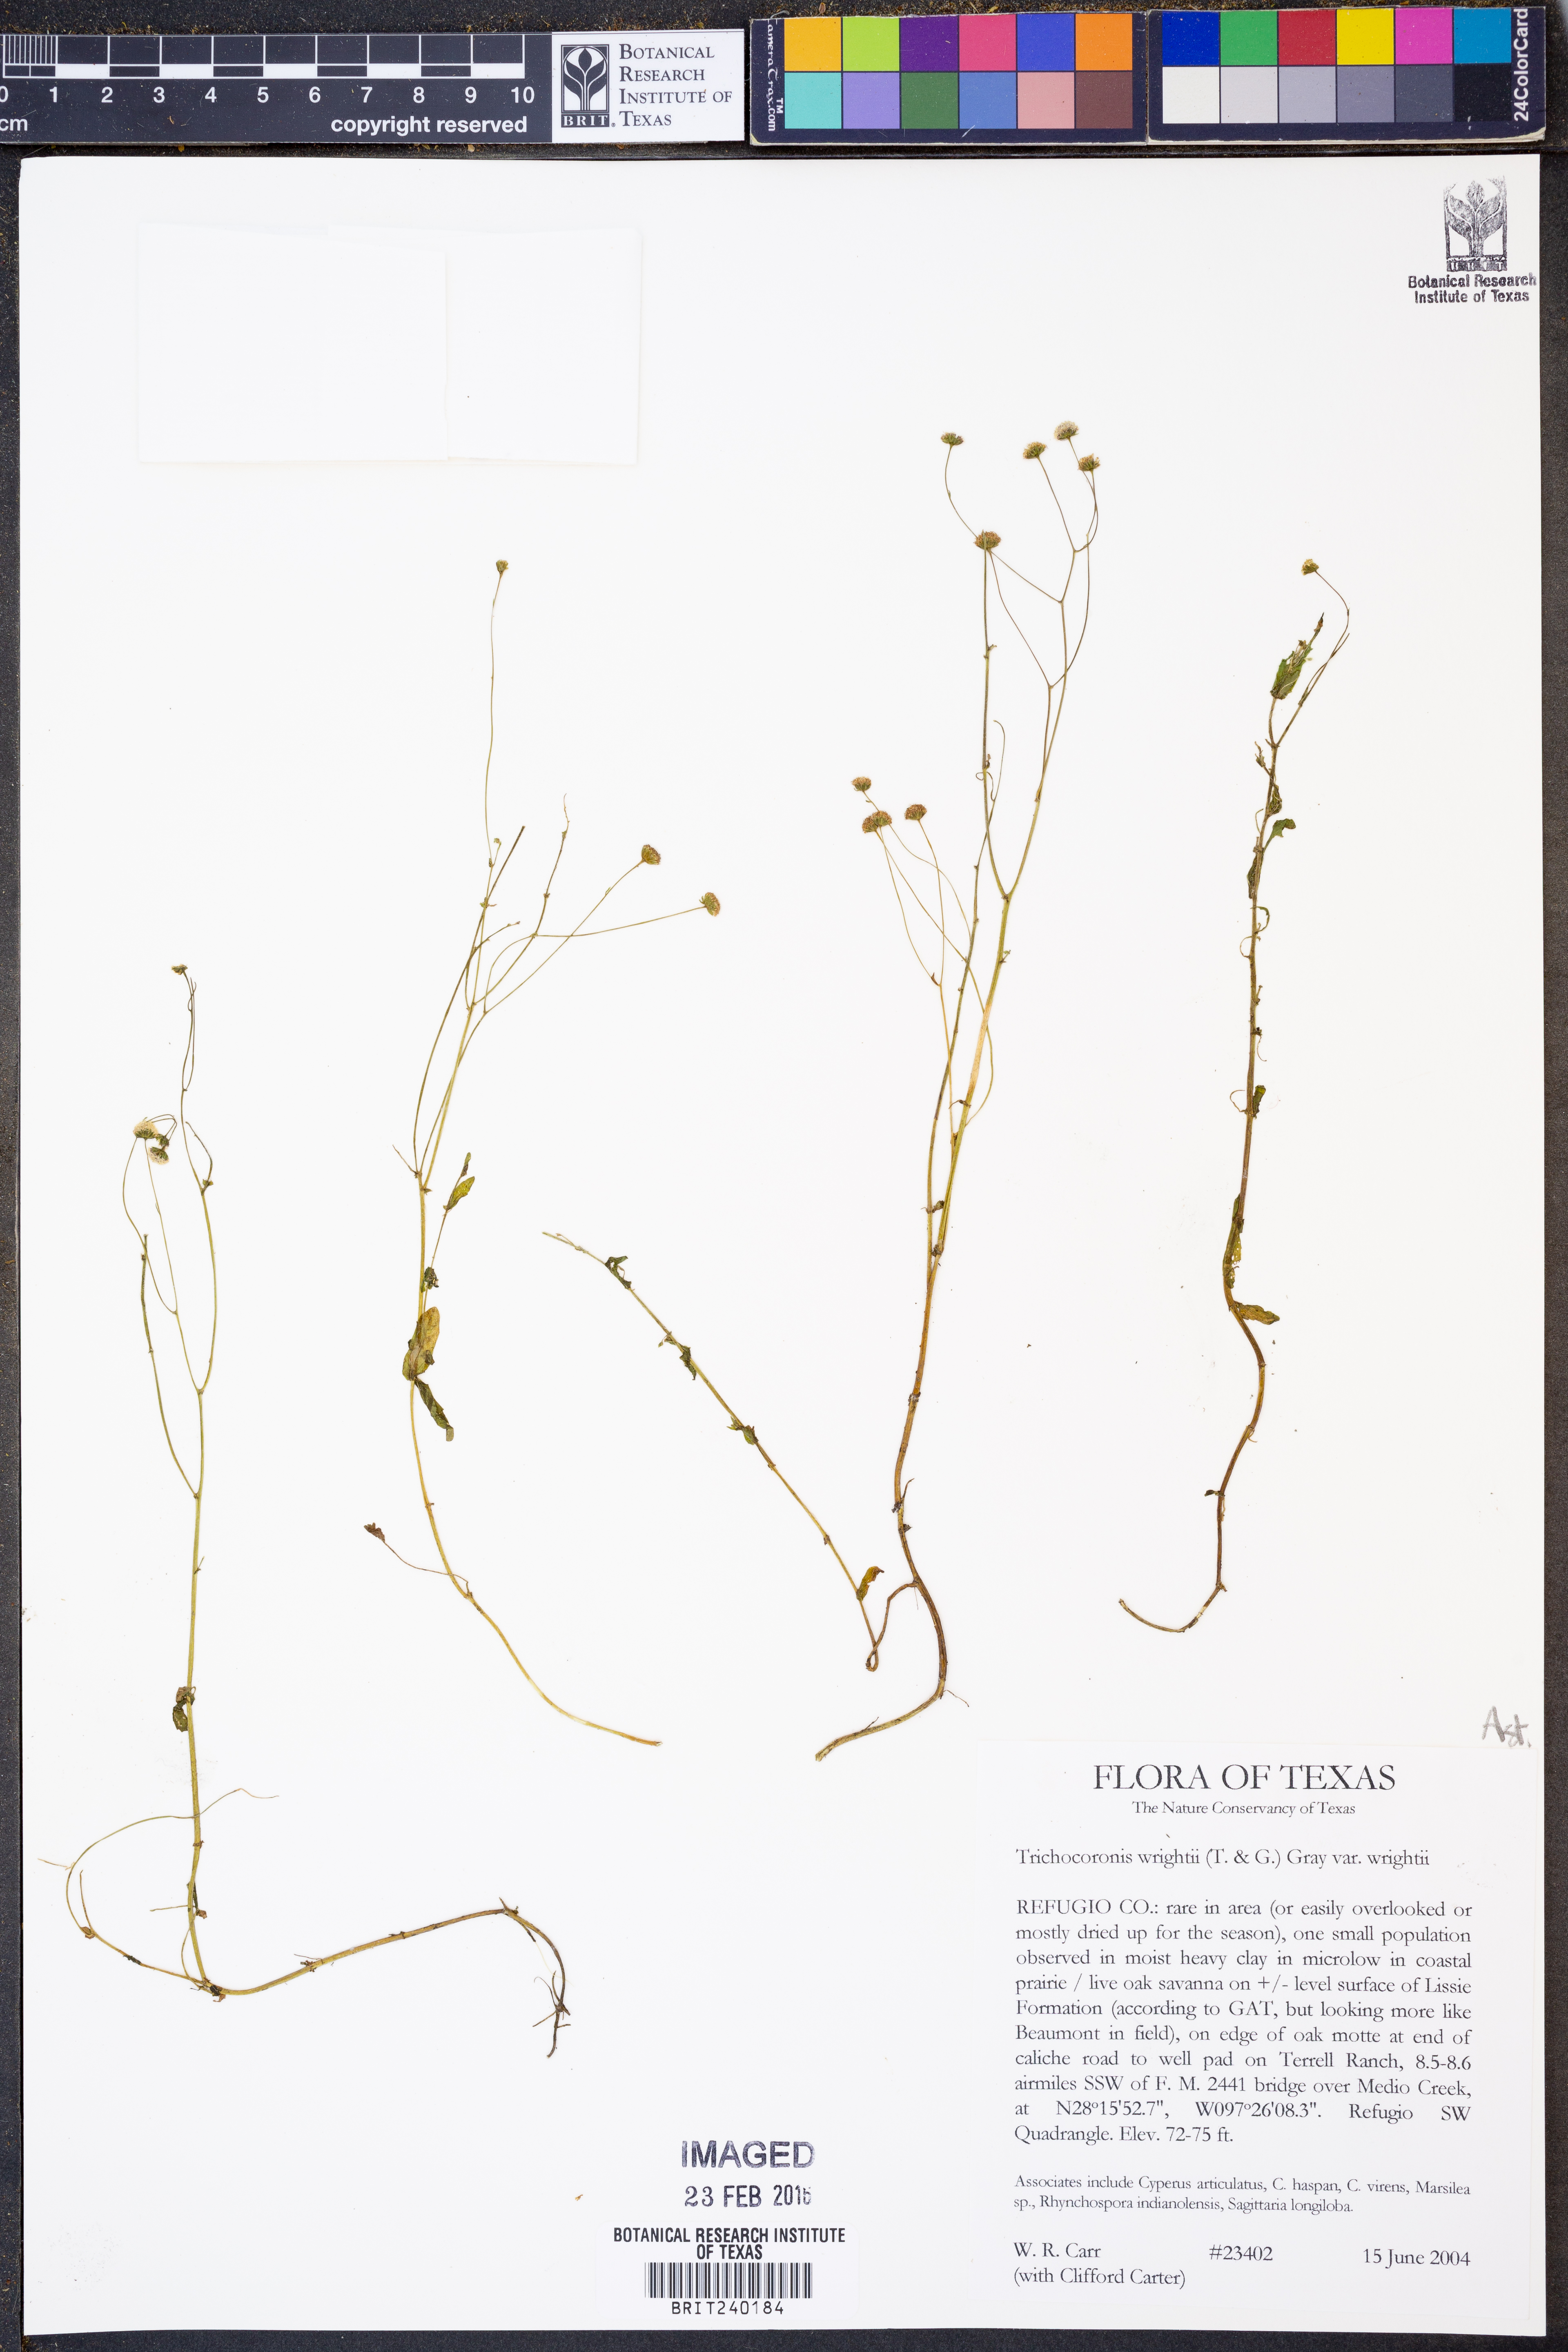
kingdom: Plantae
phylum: Tracheophyta
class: Magnoliopsida
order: Asterales
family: Asteraceae
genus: Trichocoronis
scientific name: Trichocoronis wrightii
